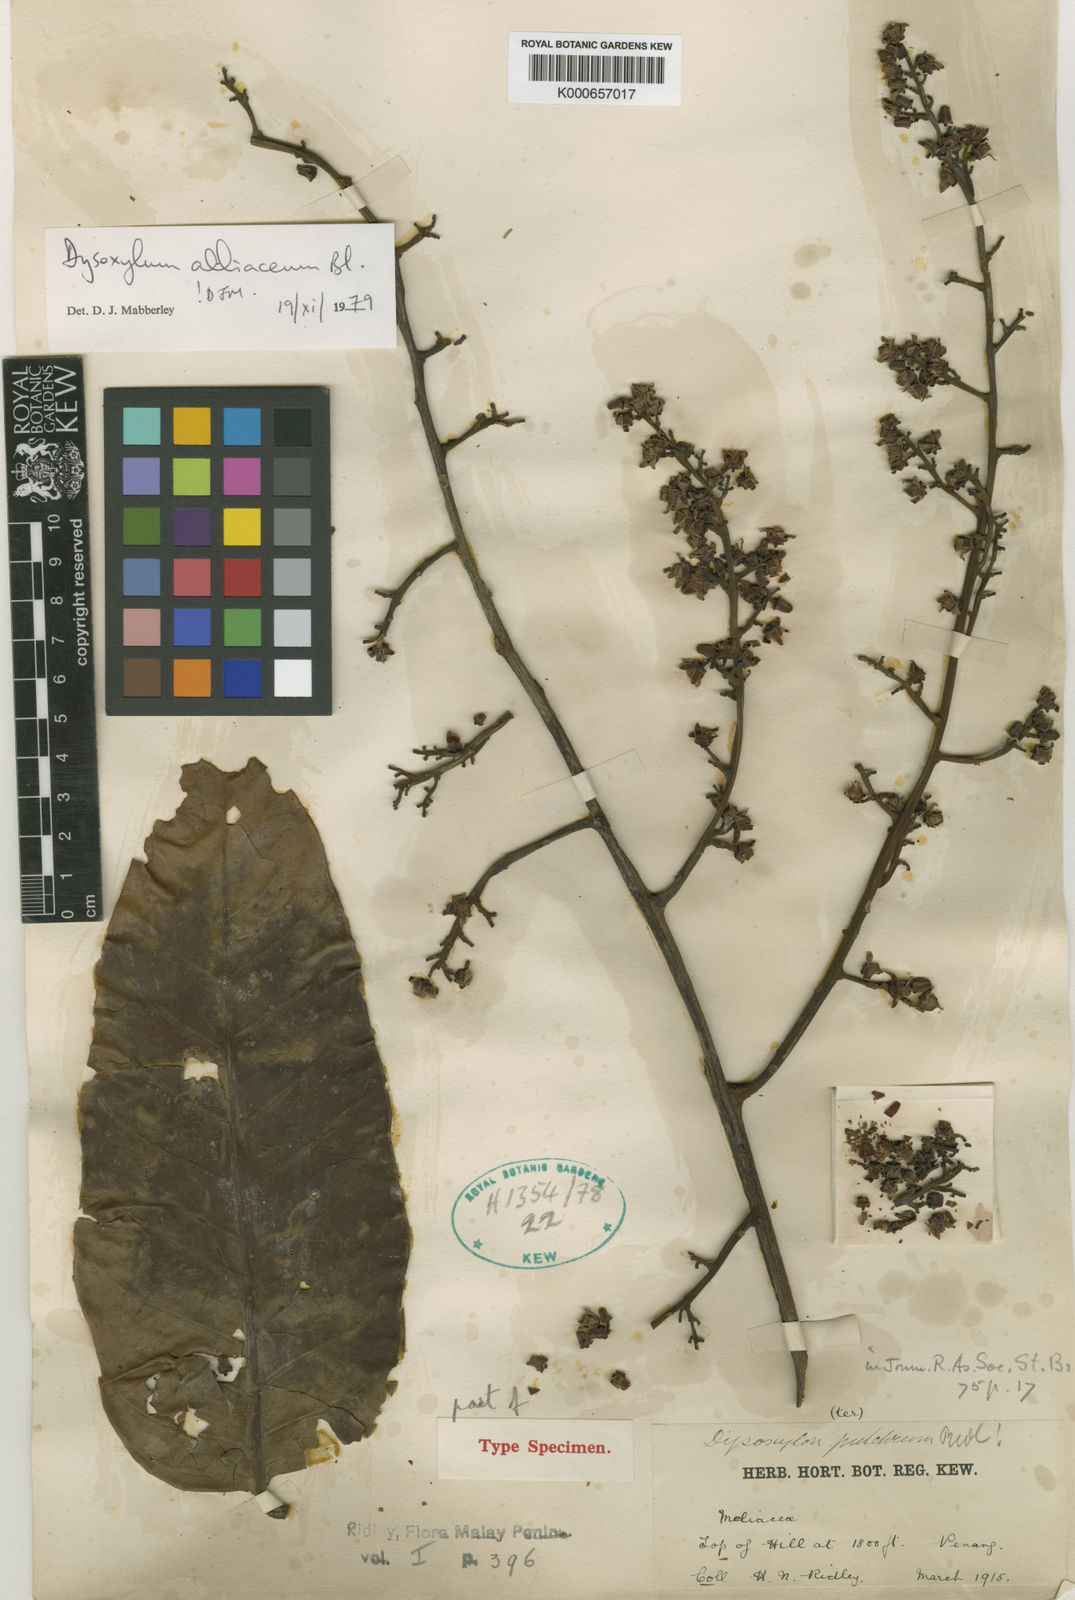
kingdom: Plantae
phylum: Tracheophyta
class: Magnoliopsida
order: Sapindales
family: Meliaceae
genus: Prasoxylon
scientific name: Prasoxylon alliaceum
